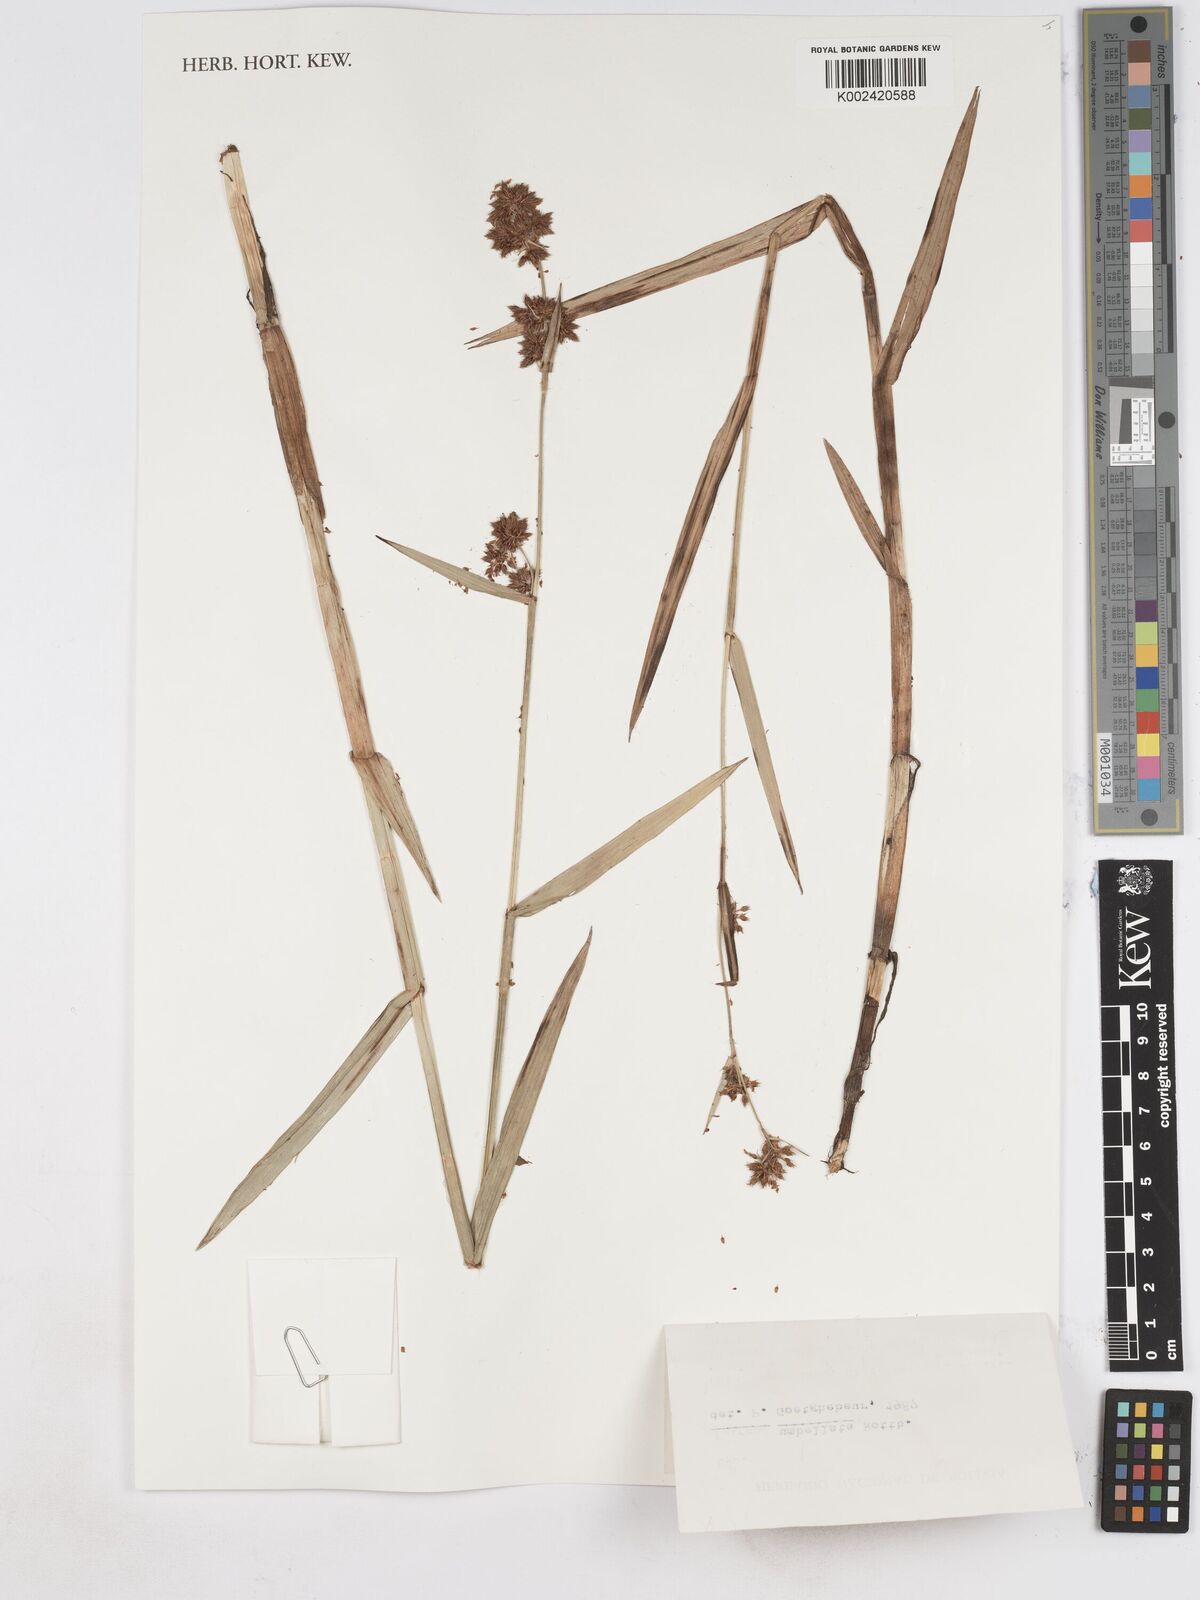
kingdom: Plantae
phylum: Tracheophyta
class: Liliopsida
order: Poales
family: Cyperaceae
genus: Fuirena
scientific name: Fuirena umbellata
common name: Yefen
